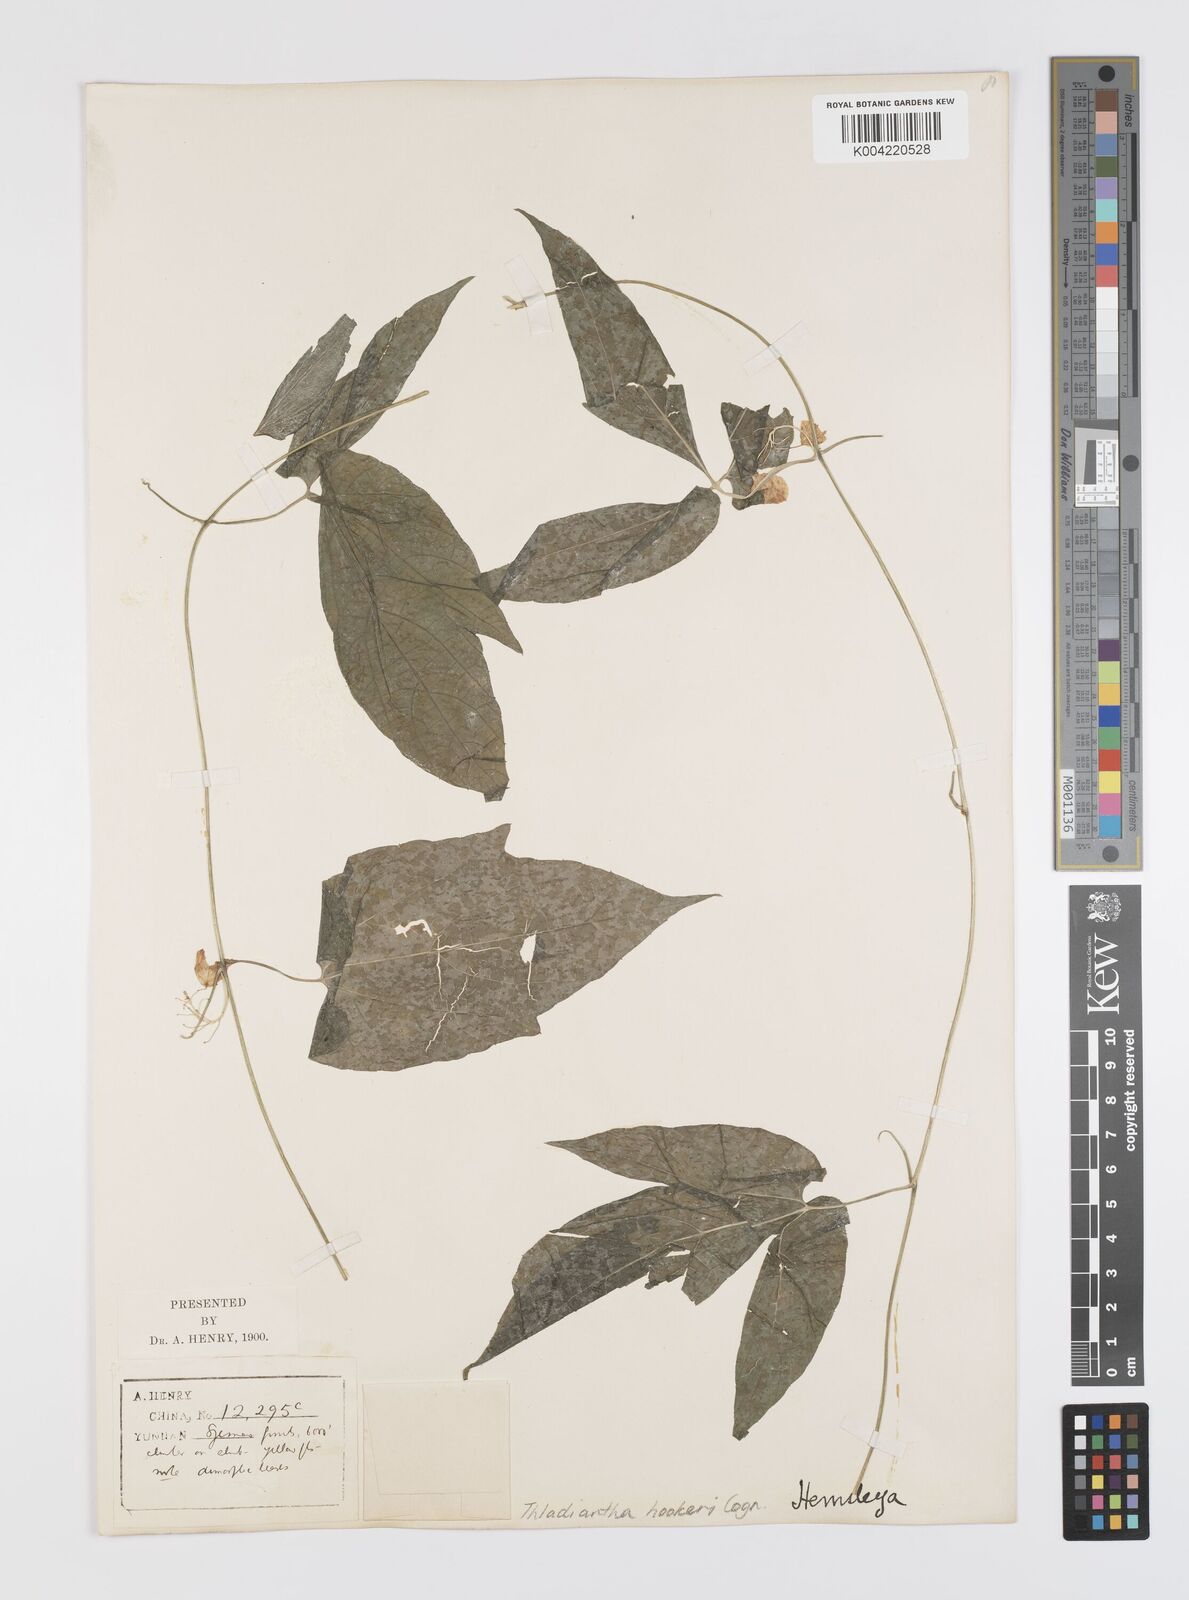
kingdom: Plantae
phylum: Tracheophyta
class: Magnoliopsida
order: Cucurbitales
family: Cucurbitaceae
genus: Thladiantha
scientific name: Thladiantha hookeri
